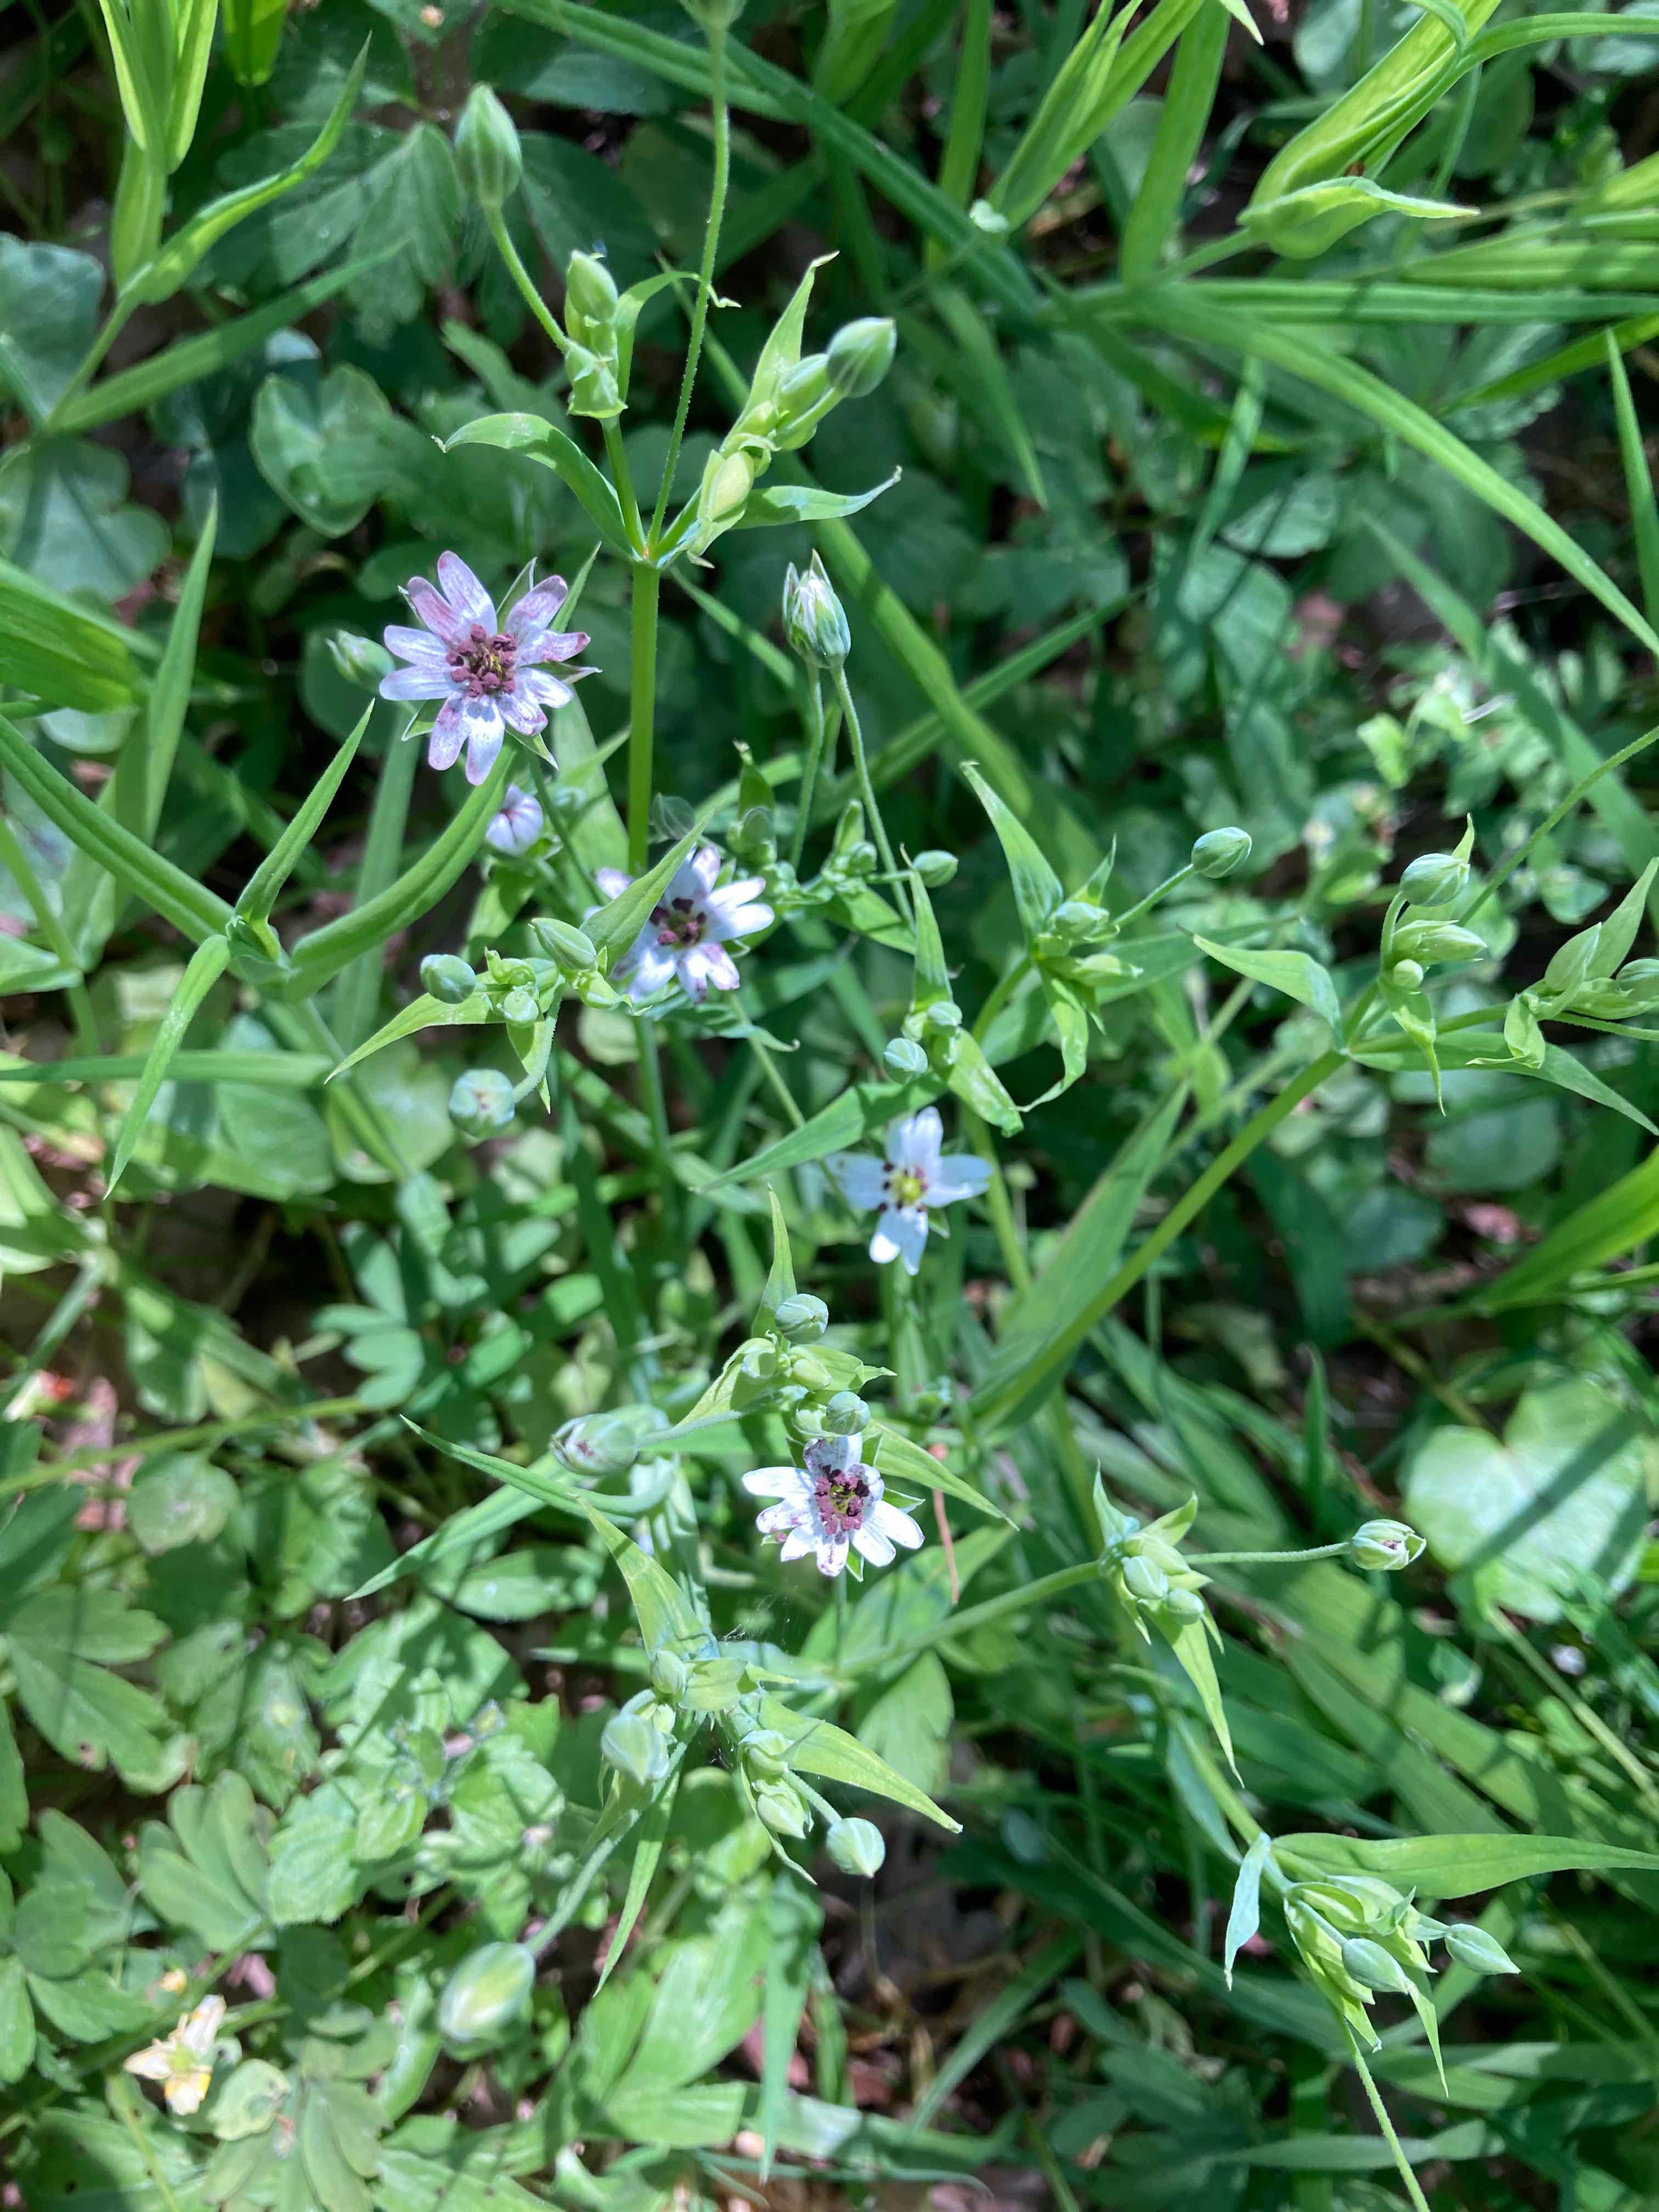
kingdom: Fungi
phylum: Basidiomycota
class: Microbotryomycetes
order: Microbotryales
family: Microbotryaceae
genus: Microbotryum
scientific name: Microbotryum stellariae
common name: fladstjerne-støvbladrust
